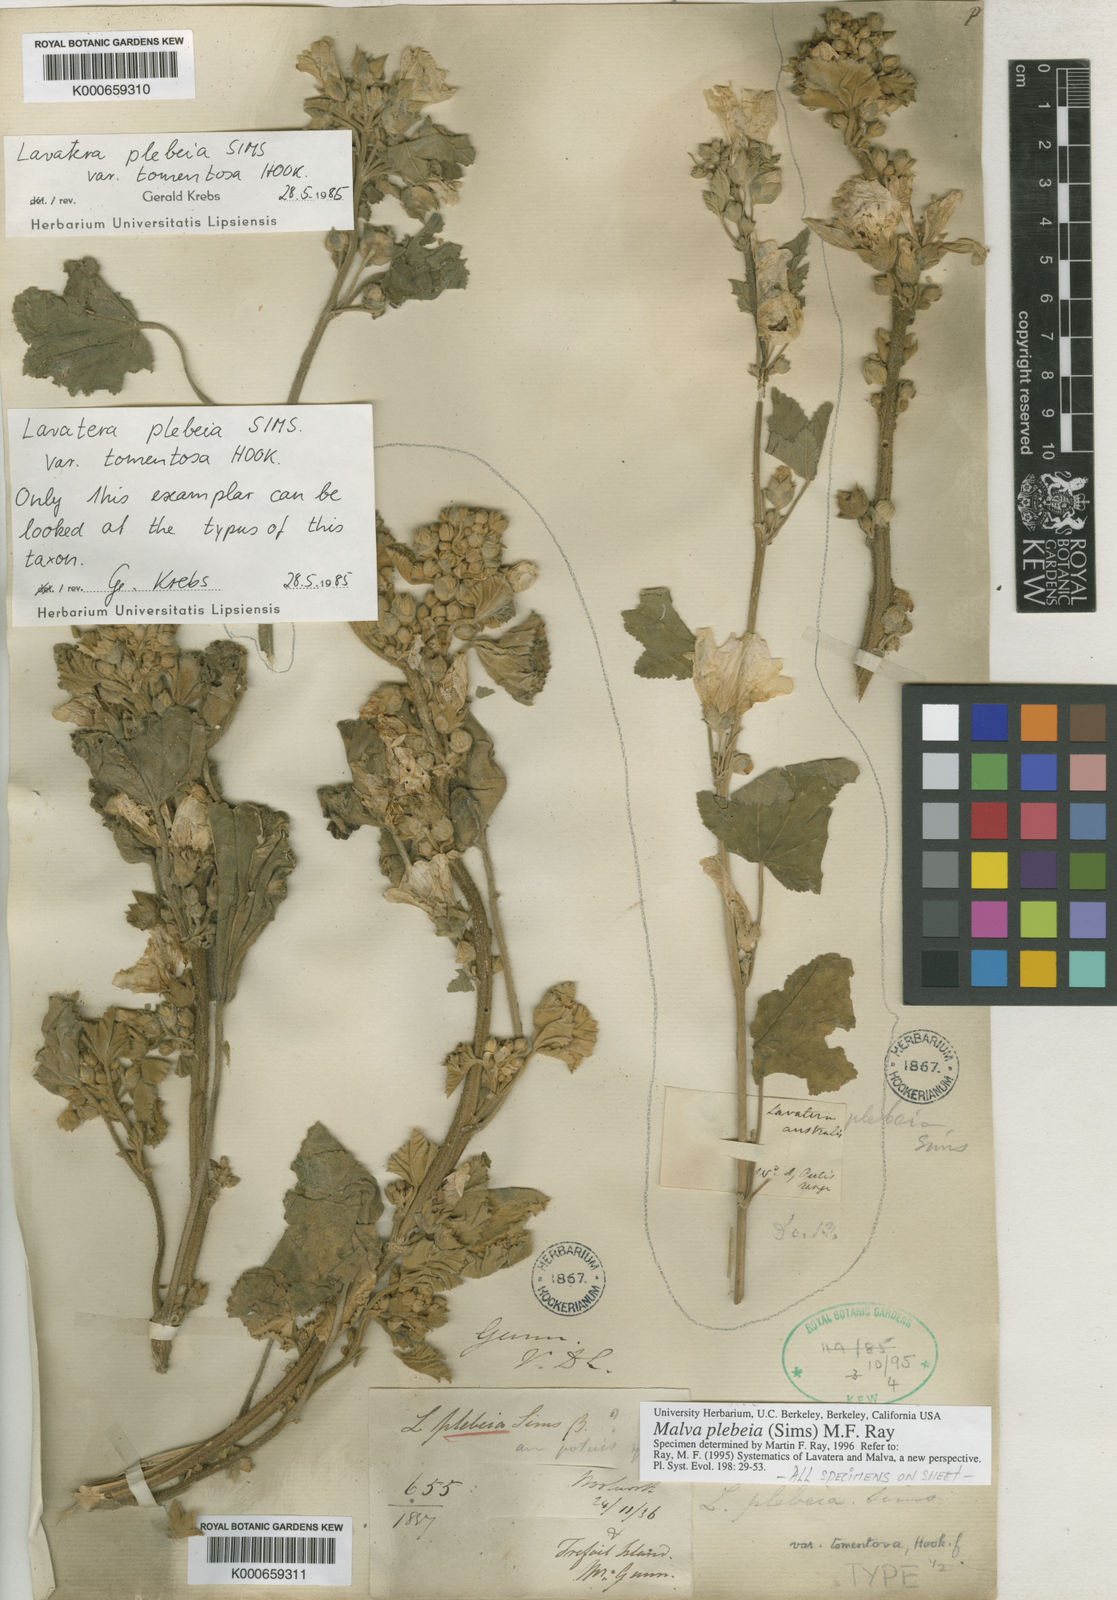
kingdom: Plantae
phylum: Tracheophyta
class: Magnoliopsida
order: Malvales
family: Malvaceae
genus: Malva
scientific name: Malva
